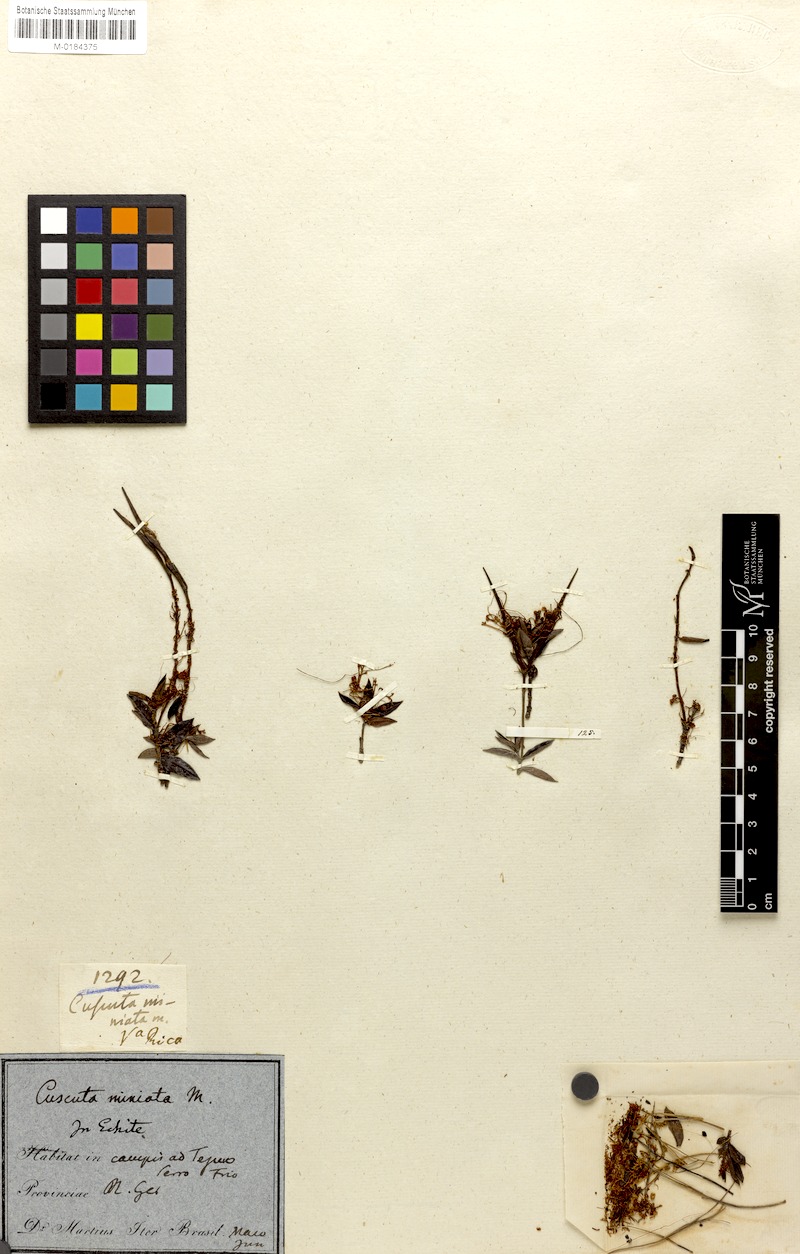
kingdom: Plantae
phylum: Tracheophyta
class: Magnoliopsida
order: Solanales
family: Convolvulaceae
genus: Cuscuta
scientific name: Cuscuta racemosa
